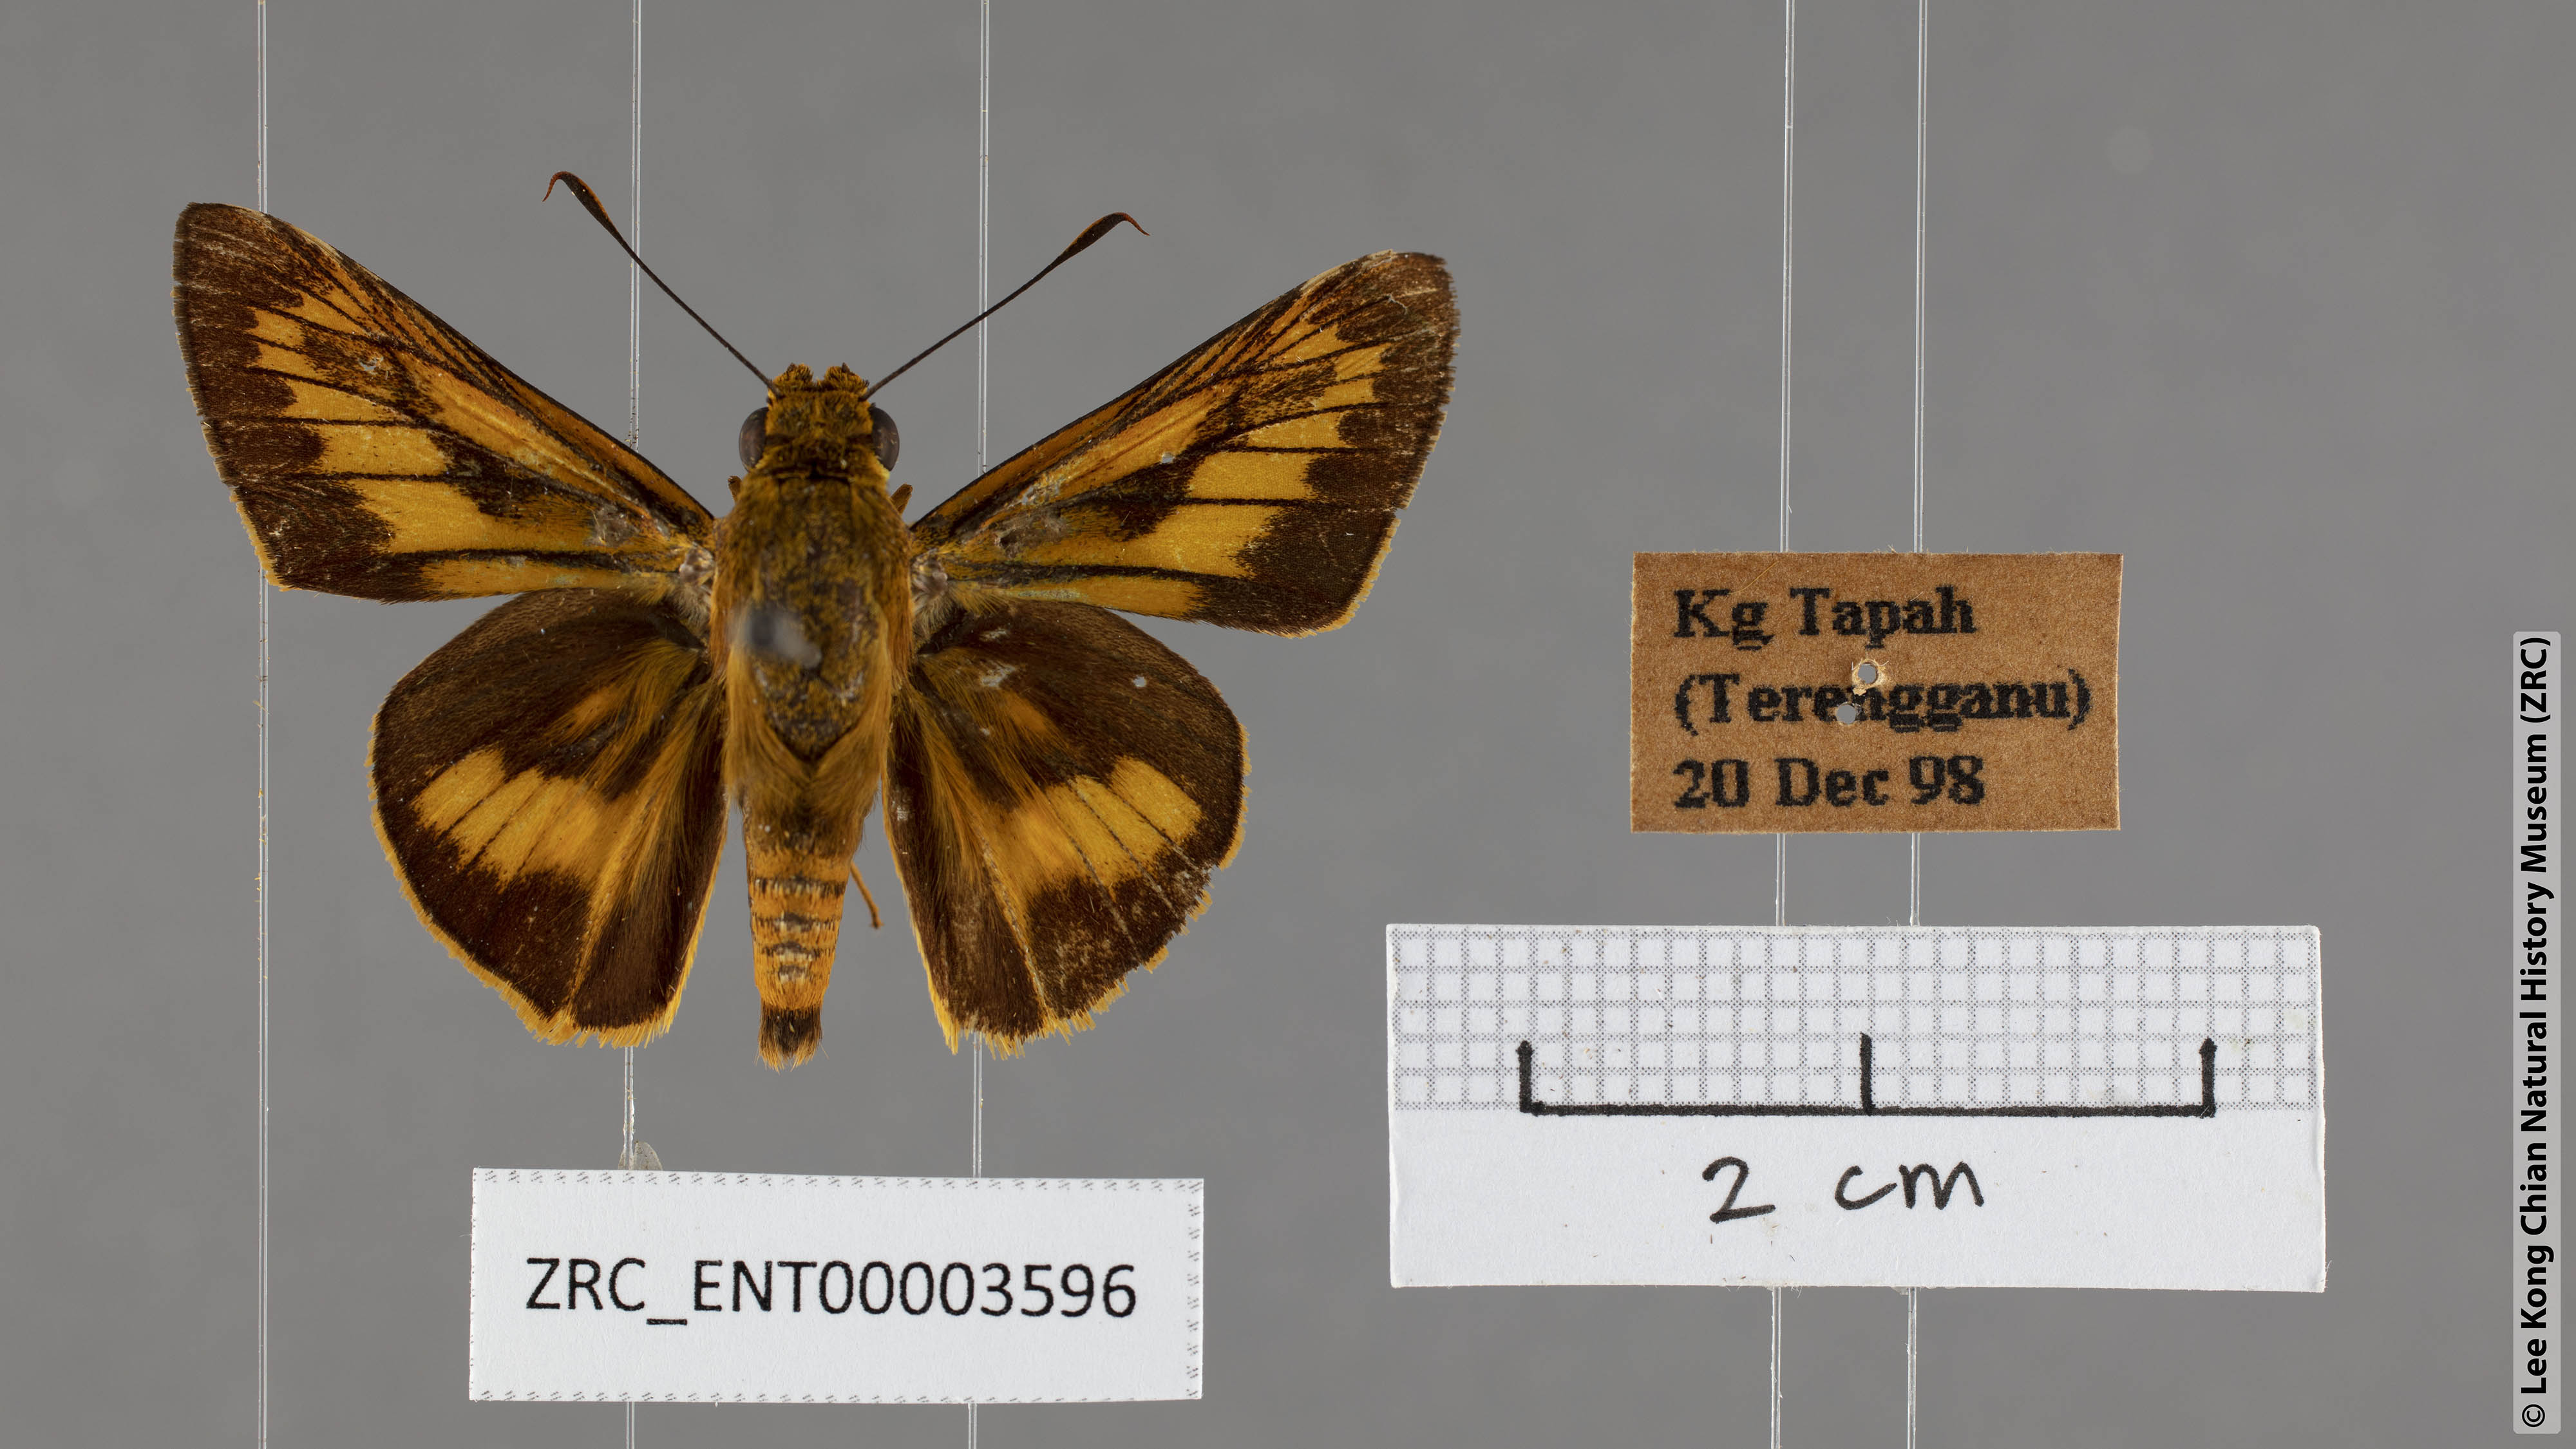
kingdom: Animalia
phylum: Arthropoda
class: Insecta
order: Lepidoptera
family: Hesperiidae
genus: Telicota
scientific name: Telicota linna
